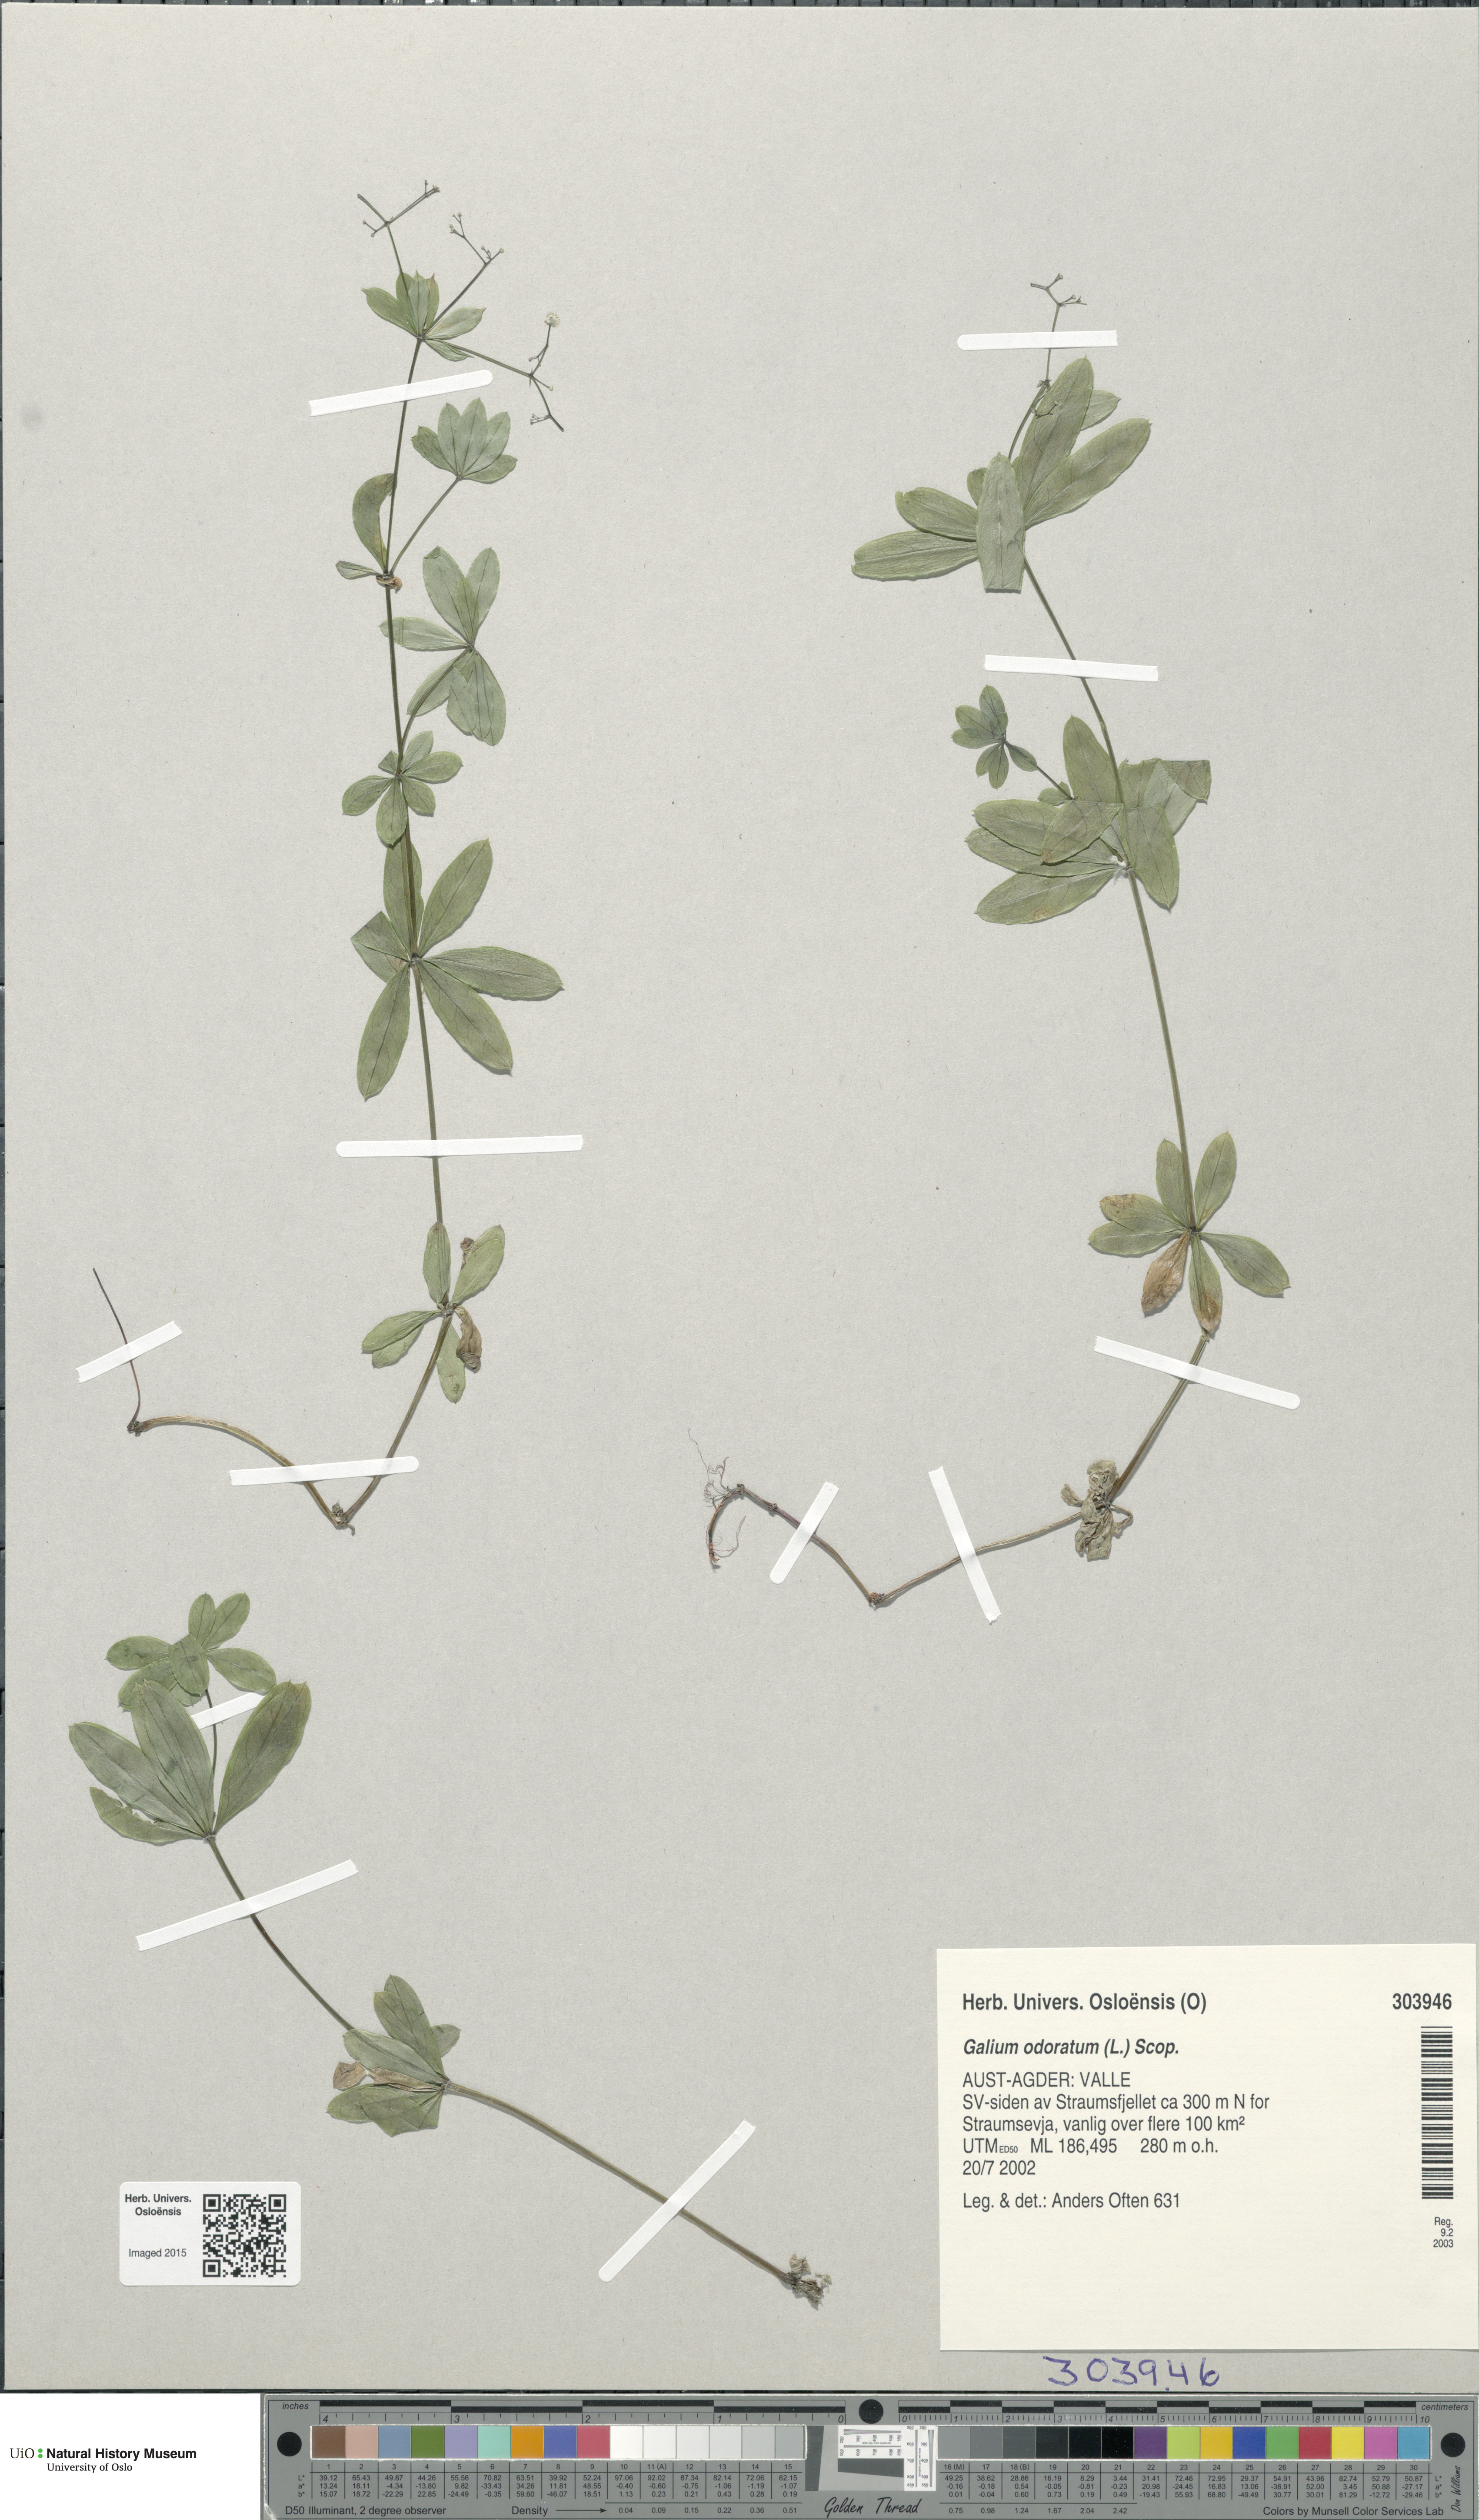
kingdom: Plantae
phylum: Tracheophyta
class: Magnoliopsida
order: Gentianales
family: Rubiaceae
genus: Galium
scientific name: Galium odoratum
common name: Sweet woodruff
